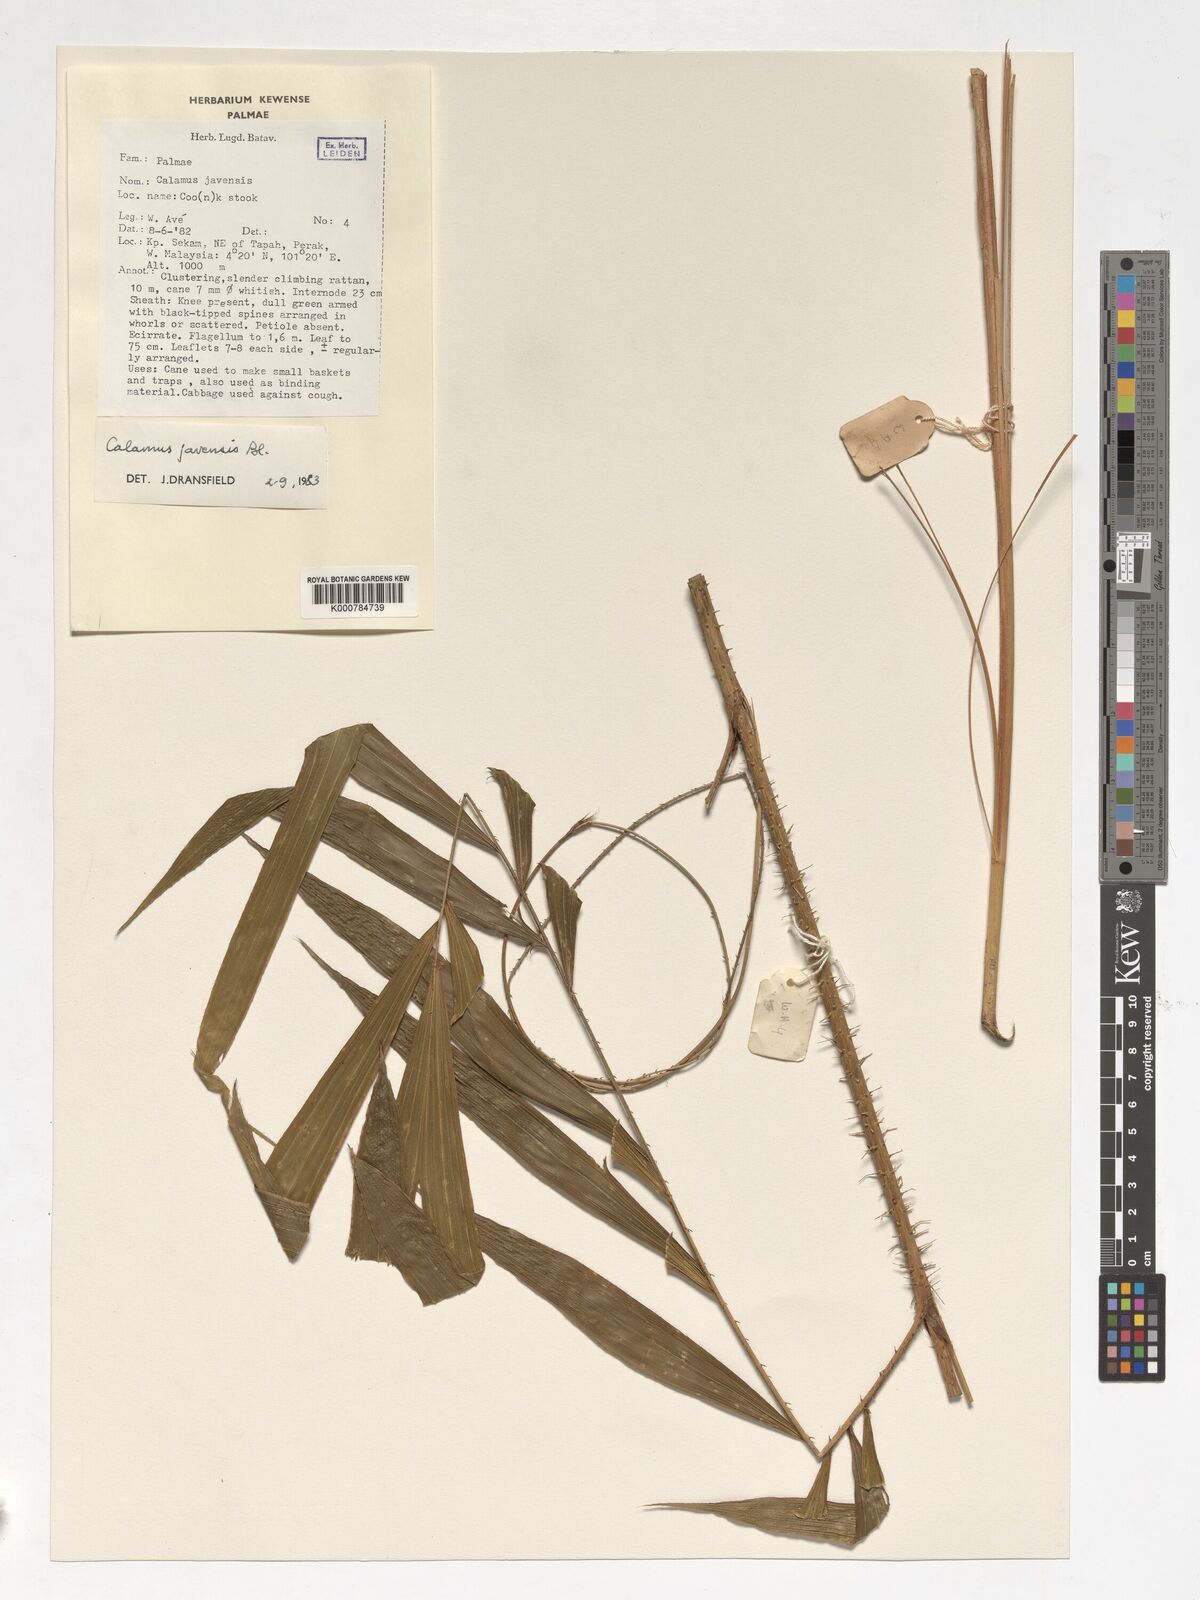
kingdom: Plantae
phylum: Tracheophyta
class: Liliopsida
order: Arecales
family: Arecaceae
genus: Calamus
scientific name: Calamus javensis
